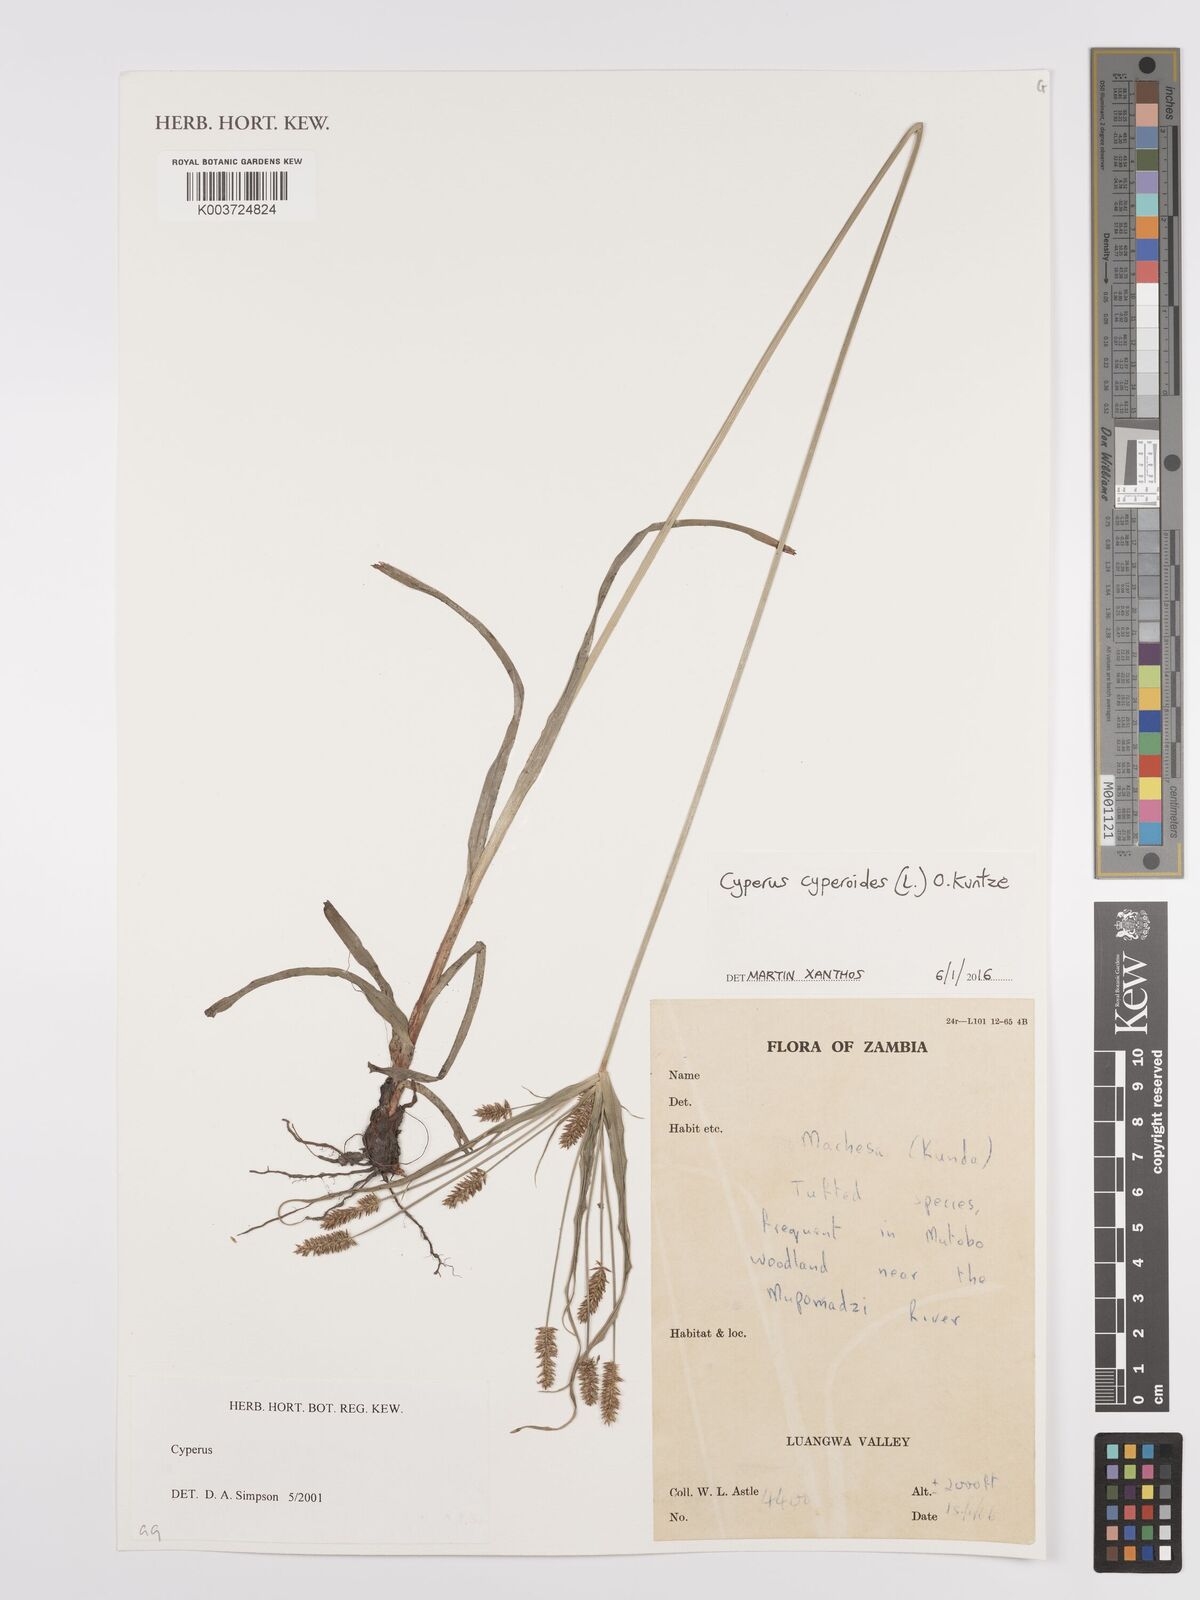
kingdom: Plantae
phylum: Tracheophyta
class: Liliopsida
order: Poales
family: Cyperaceae
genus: Cyperus
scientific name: Cyperus cyperoides
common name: Pacific island flat sedge
